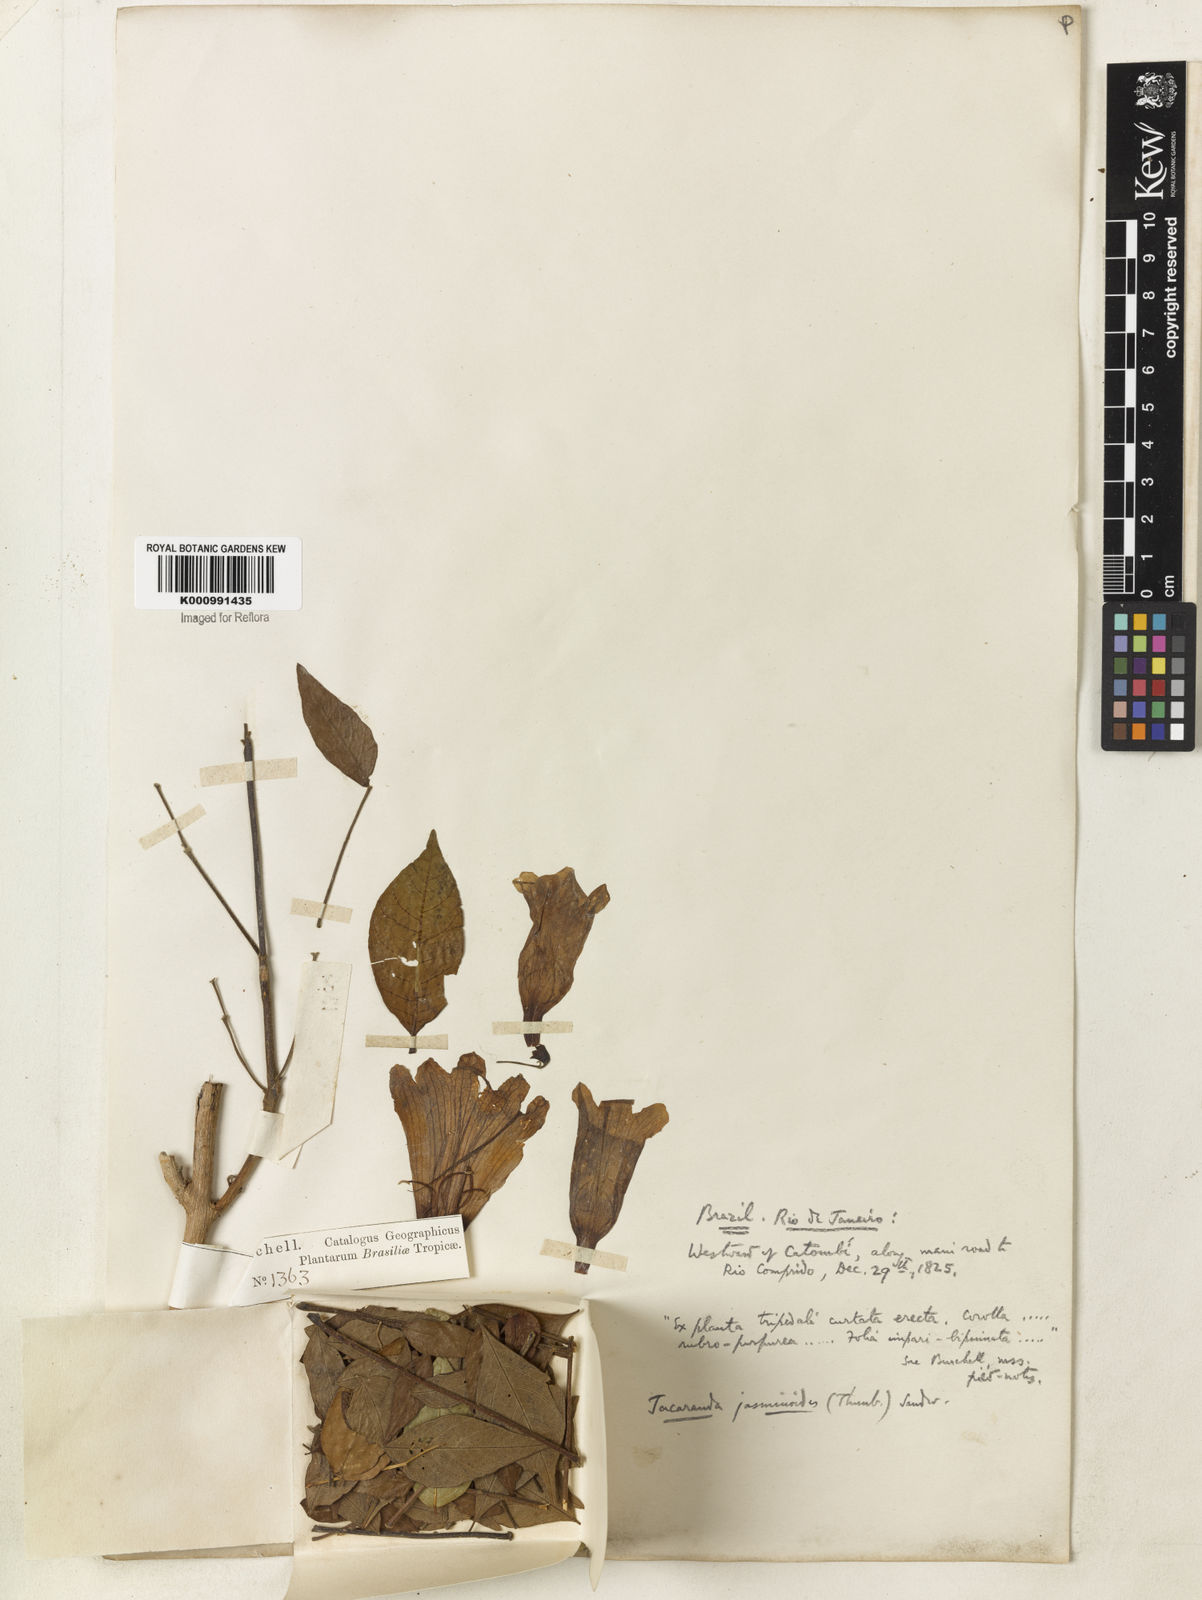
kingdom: Plantae
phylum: Tracheophyta
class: Magnoliopsida
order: Lamiales
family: Bignoniaceae
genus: Jacaranda
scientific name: Jacaranda jasminoides
